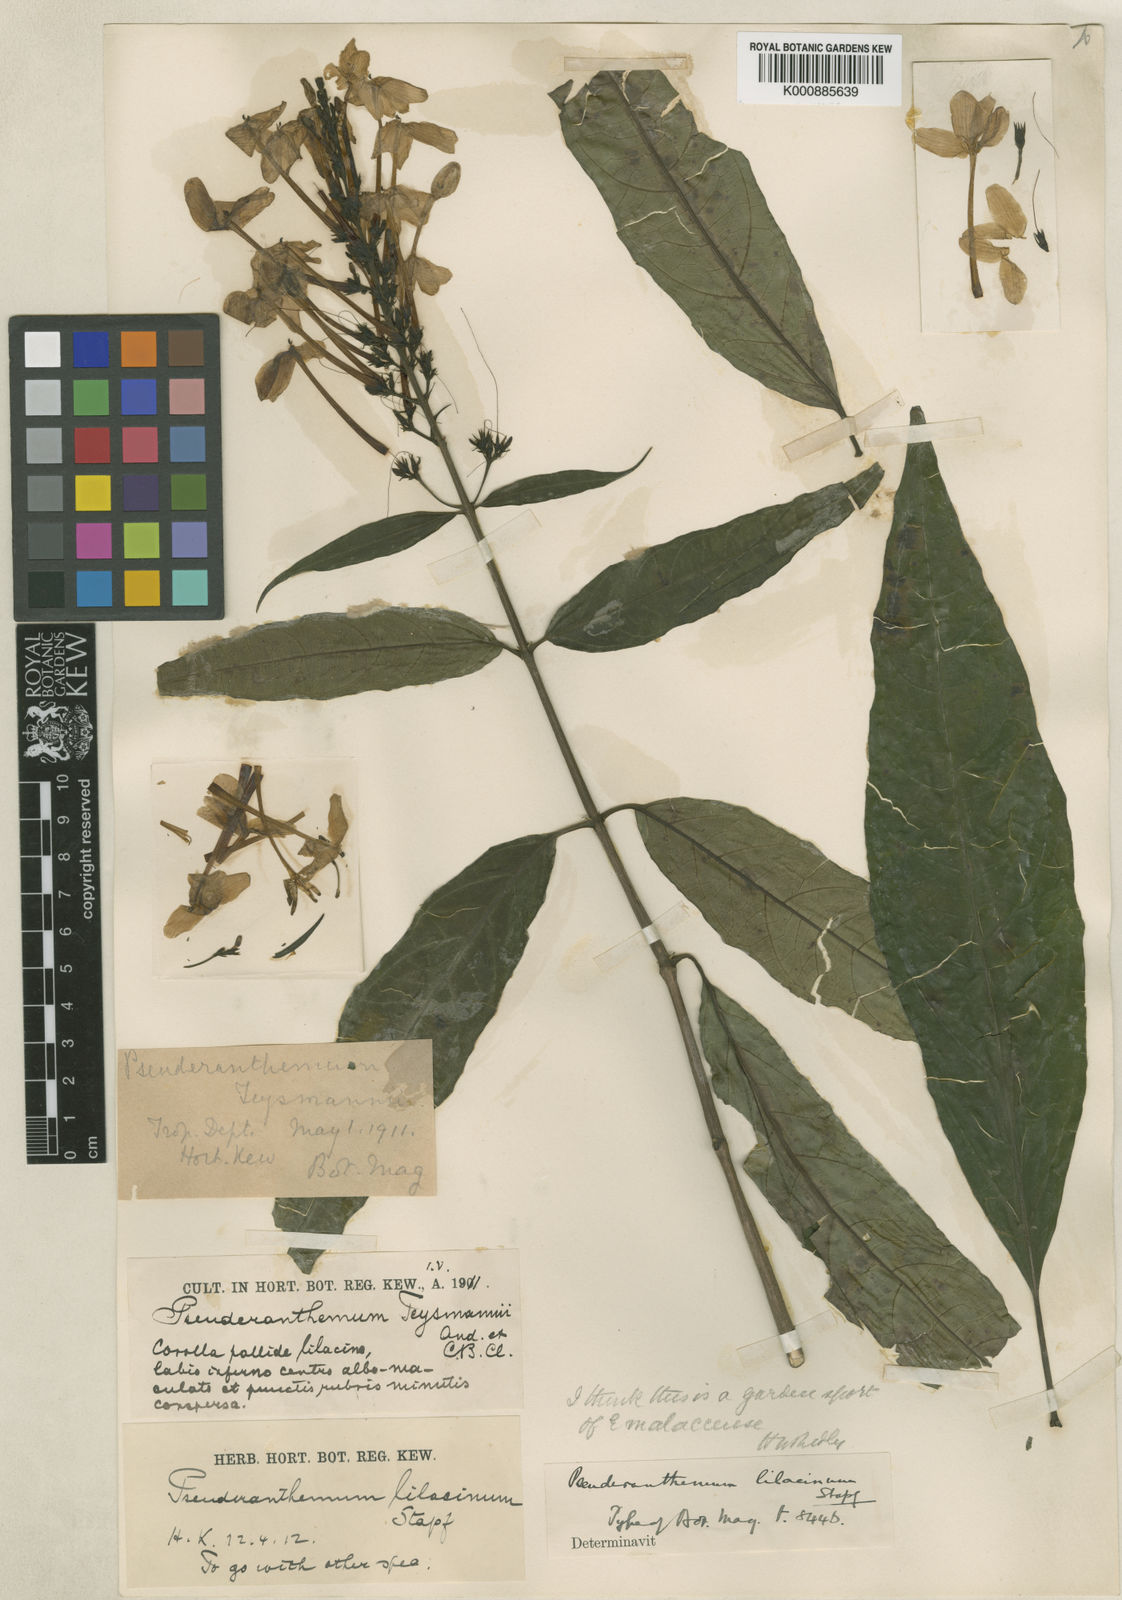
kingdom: Plantae
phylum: Tracheophyta
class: Magnoliopsida
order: Lamiales
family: Acanthaceae
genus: Pseuderanthemum
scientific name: Pseuderanthemum lilacinum
